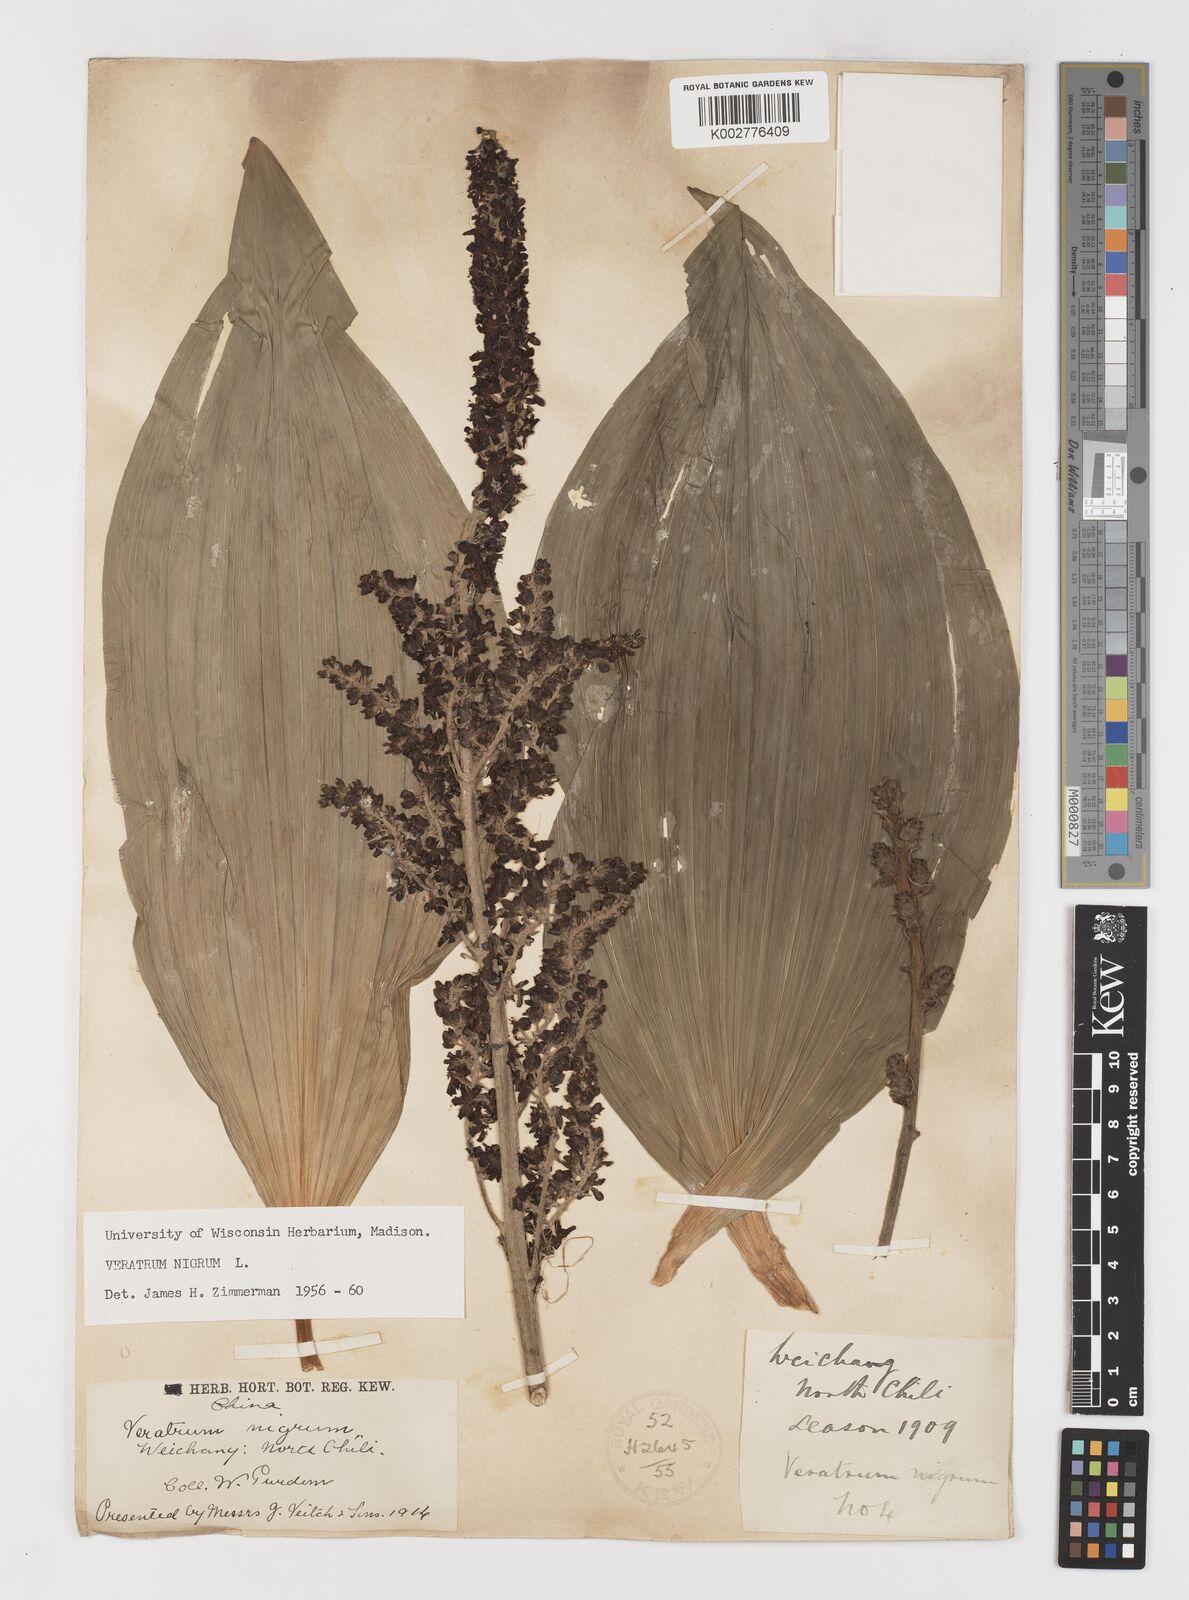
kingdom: Plantae
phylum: Tracheophyta
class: Liliopsida
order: Liliales
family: Melanthiaceae
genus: Veratrum
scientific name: Veratrum nigrum
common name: Black veratrum
